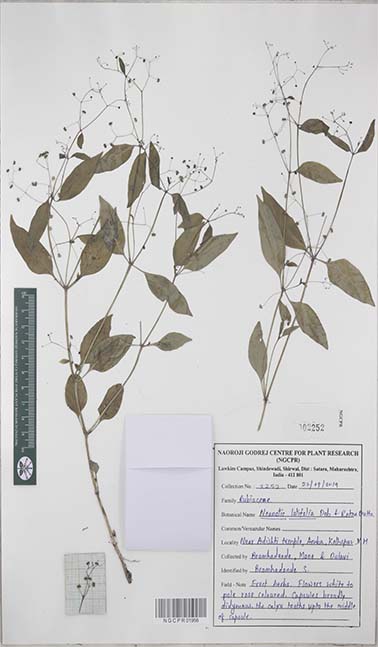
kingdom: Plantae
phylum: Tracheophyta
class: Magnoliopsida
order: Gentianales
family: Rubiaceae
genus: Neanotis
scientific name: Neanotis latifolia
